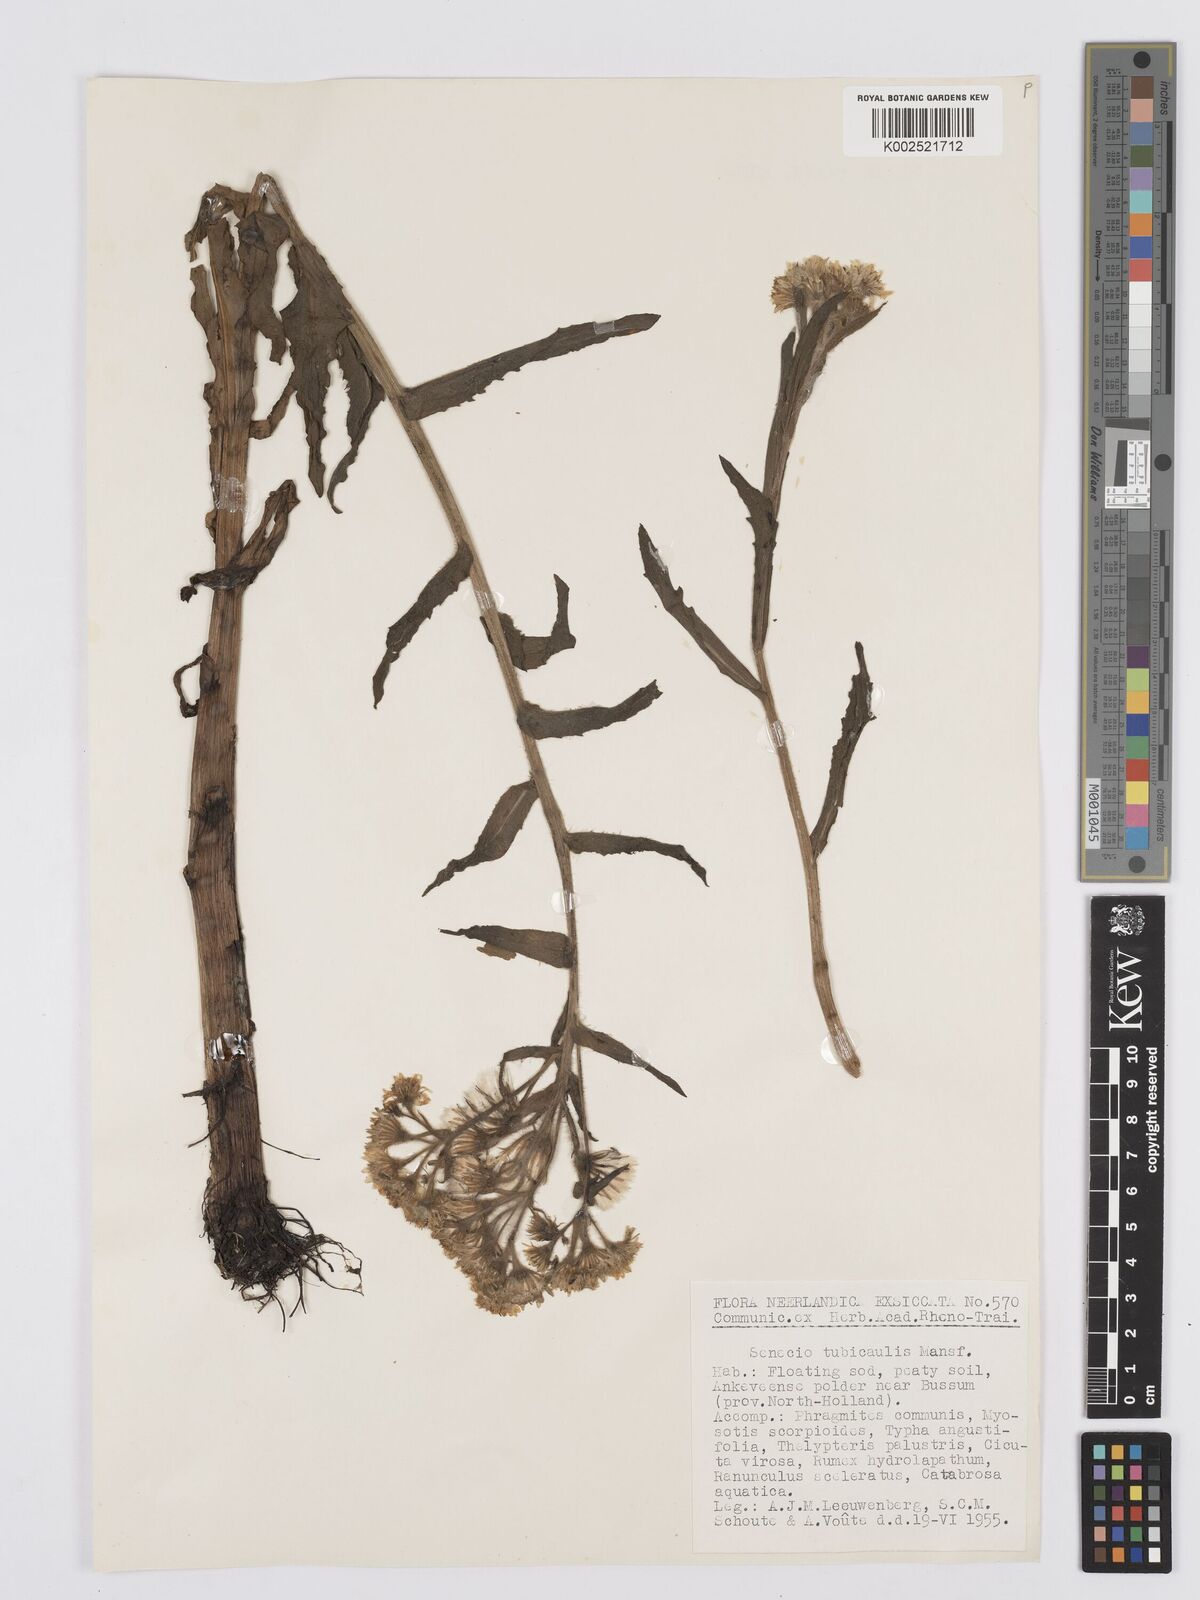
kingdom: Plantae
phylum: Tracheophyta
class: Magnoliopsida
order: Asterales
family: Asteraceae
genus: Tephroseris
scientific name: Tephroseris palustris
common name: Marsh fleawort
